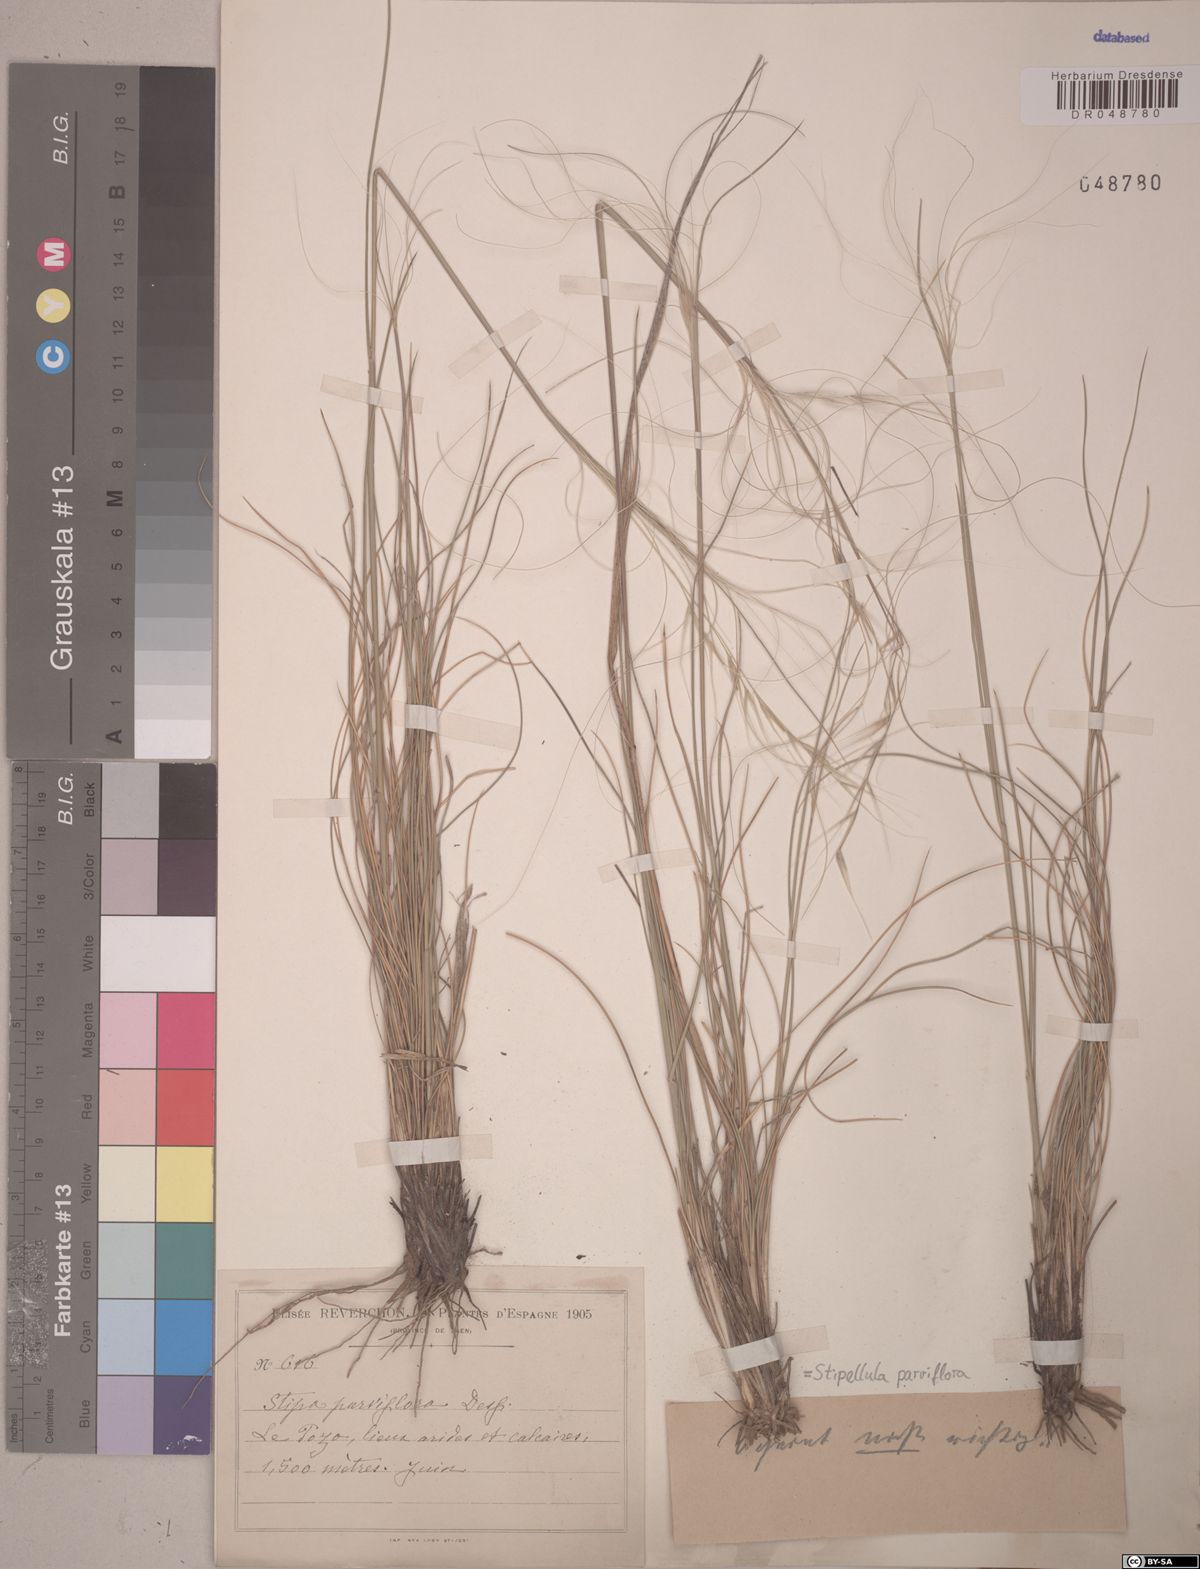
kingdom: Plantae
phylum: Tracheophyta
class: Liliopsida
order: Poales
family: Poaceae
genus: Achnatherum
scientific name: Achnatherum parviflorum
